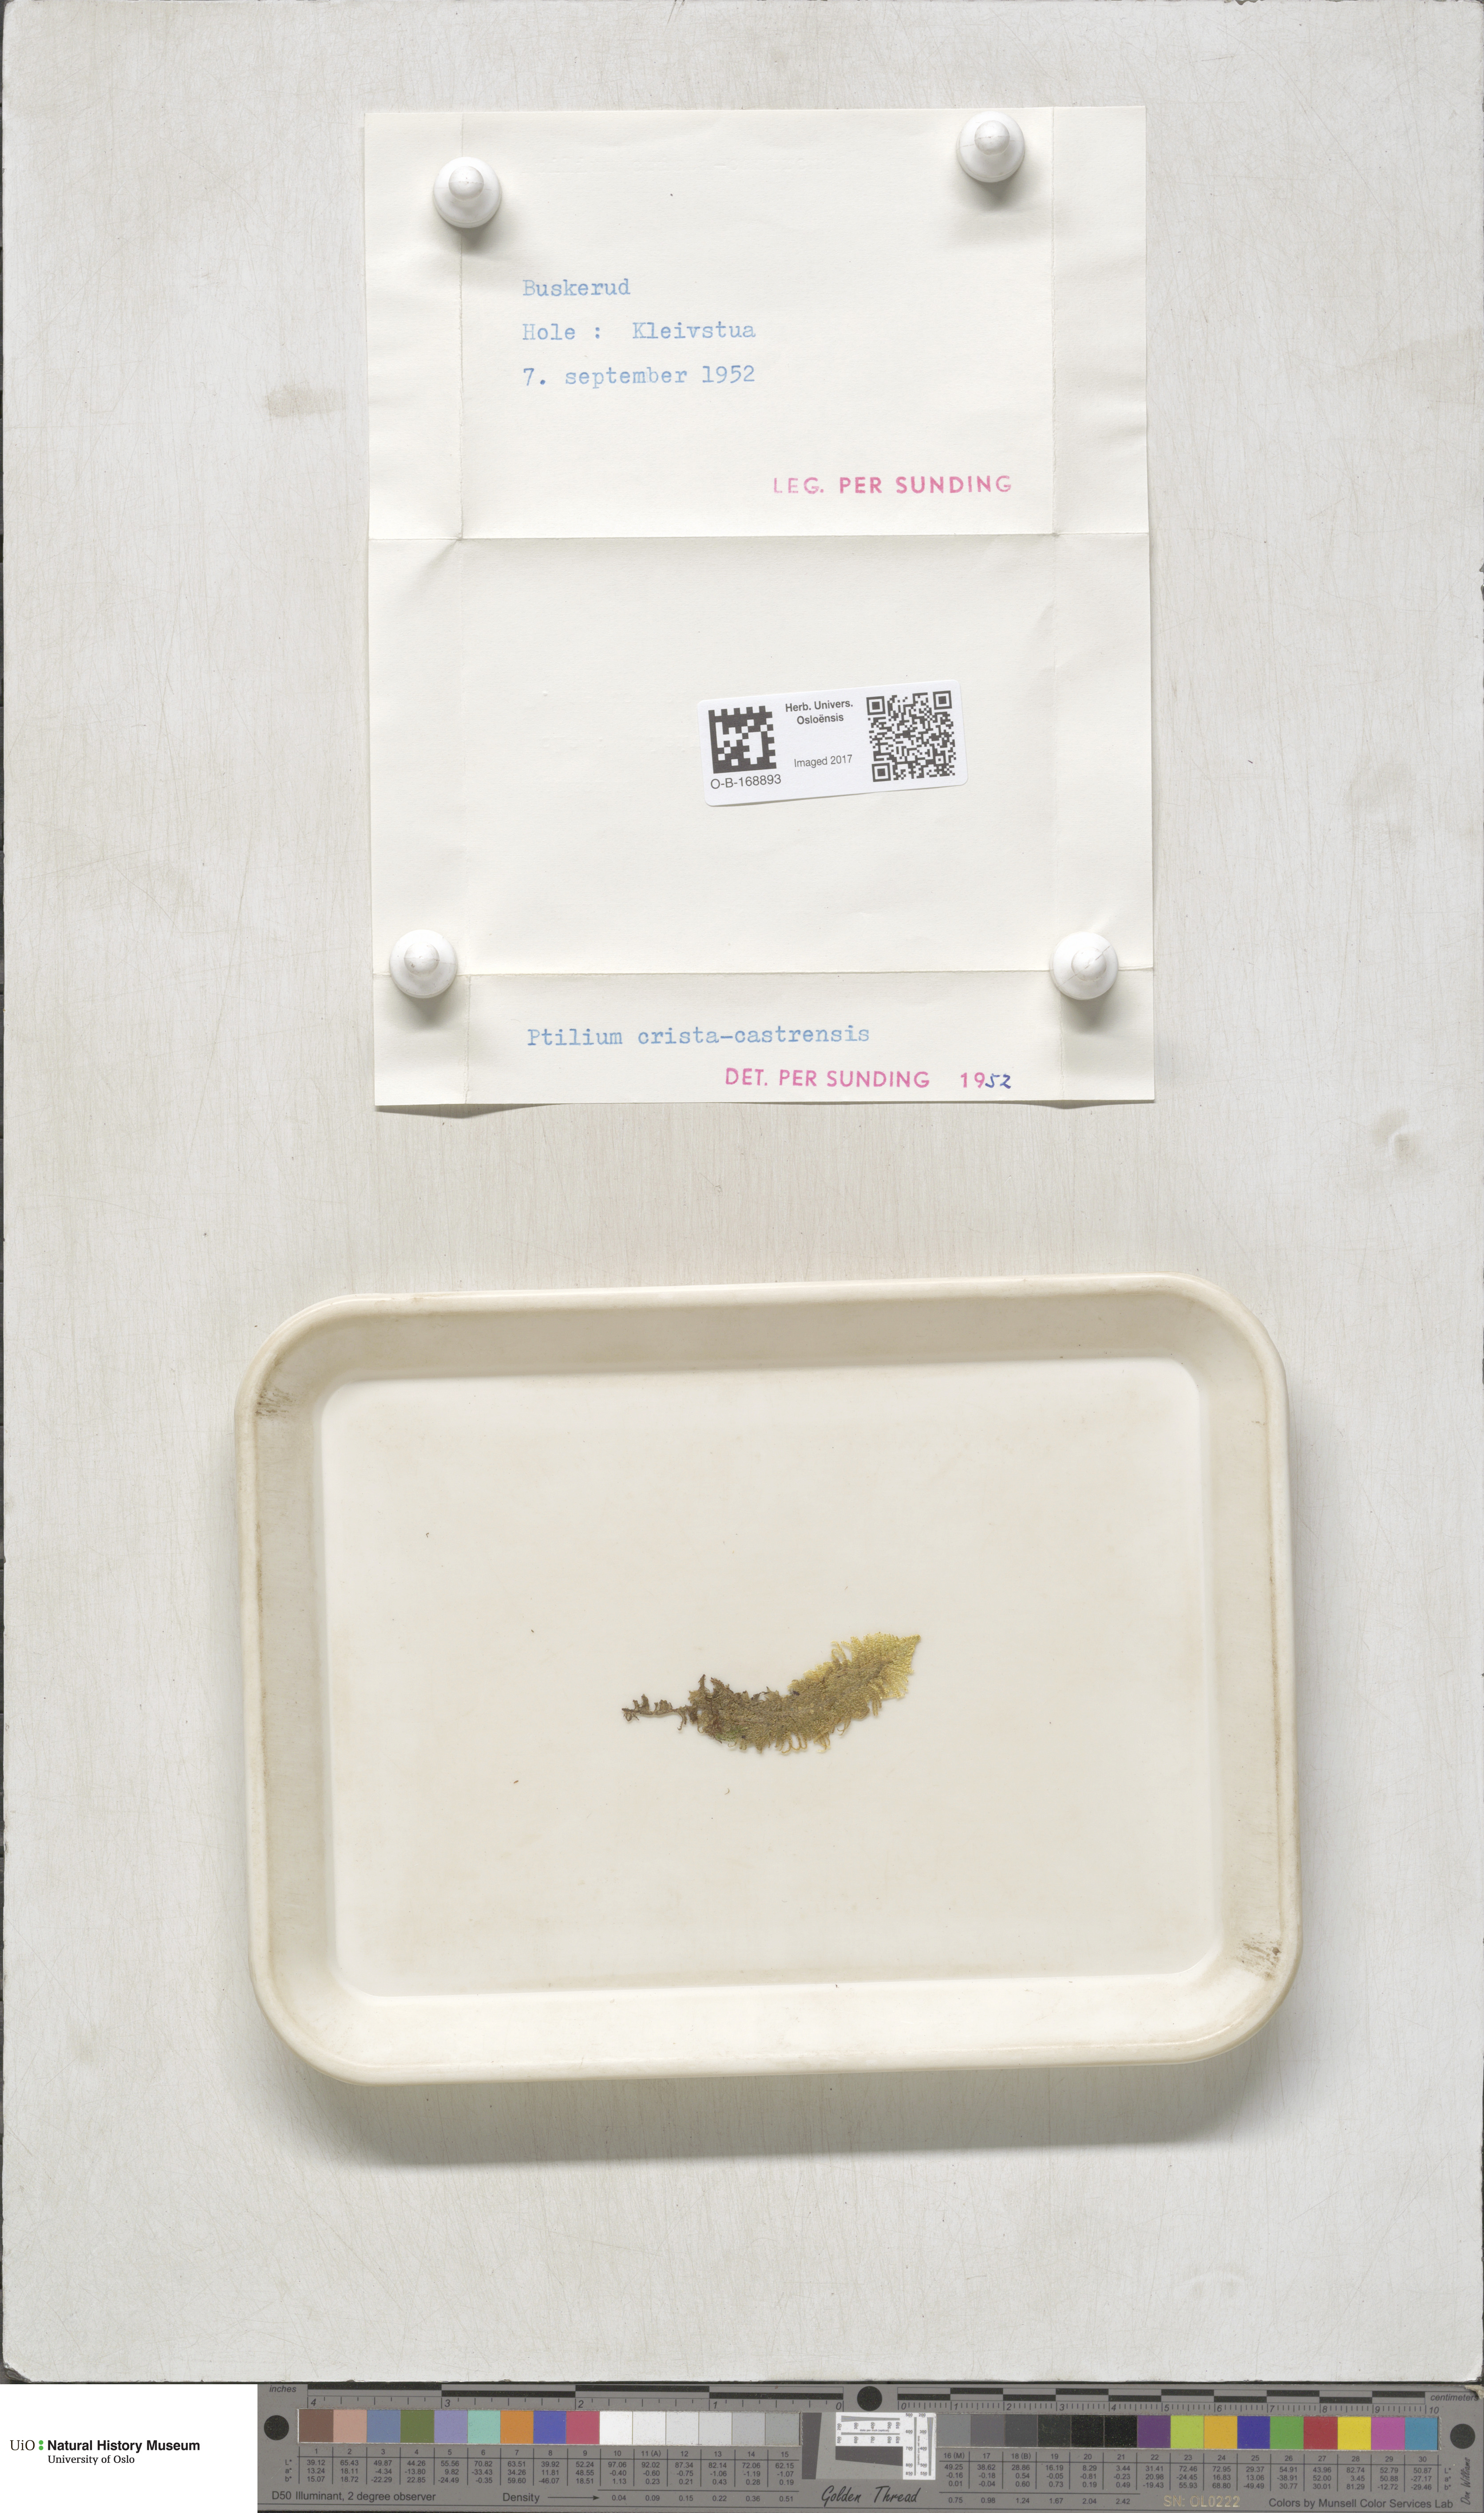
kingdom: Plantae
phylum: Bryophyta
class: Bryopsida
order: Hypnales
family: Pylaisiaceae
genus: Ptilium
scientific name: Ptilium crista-castrensis
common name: Knight's plume moss
